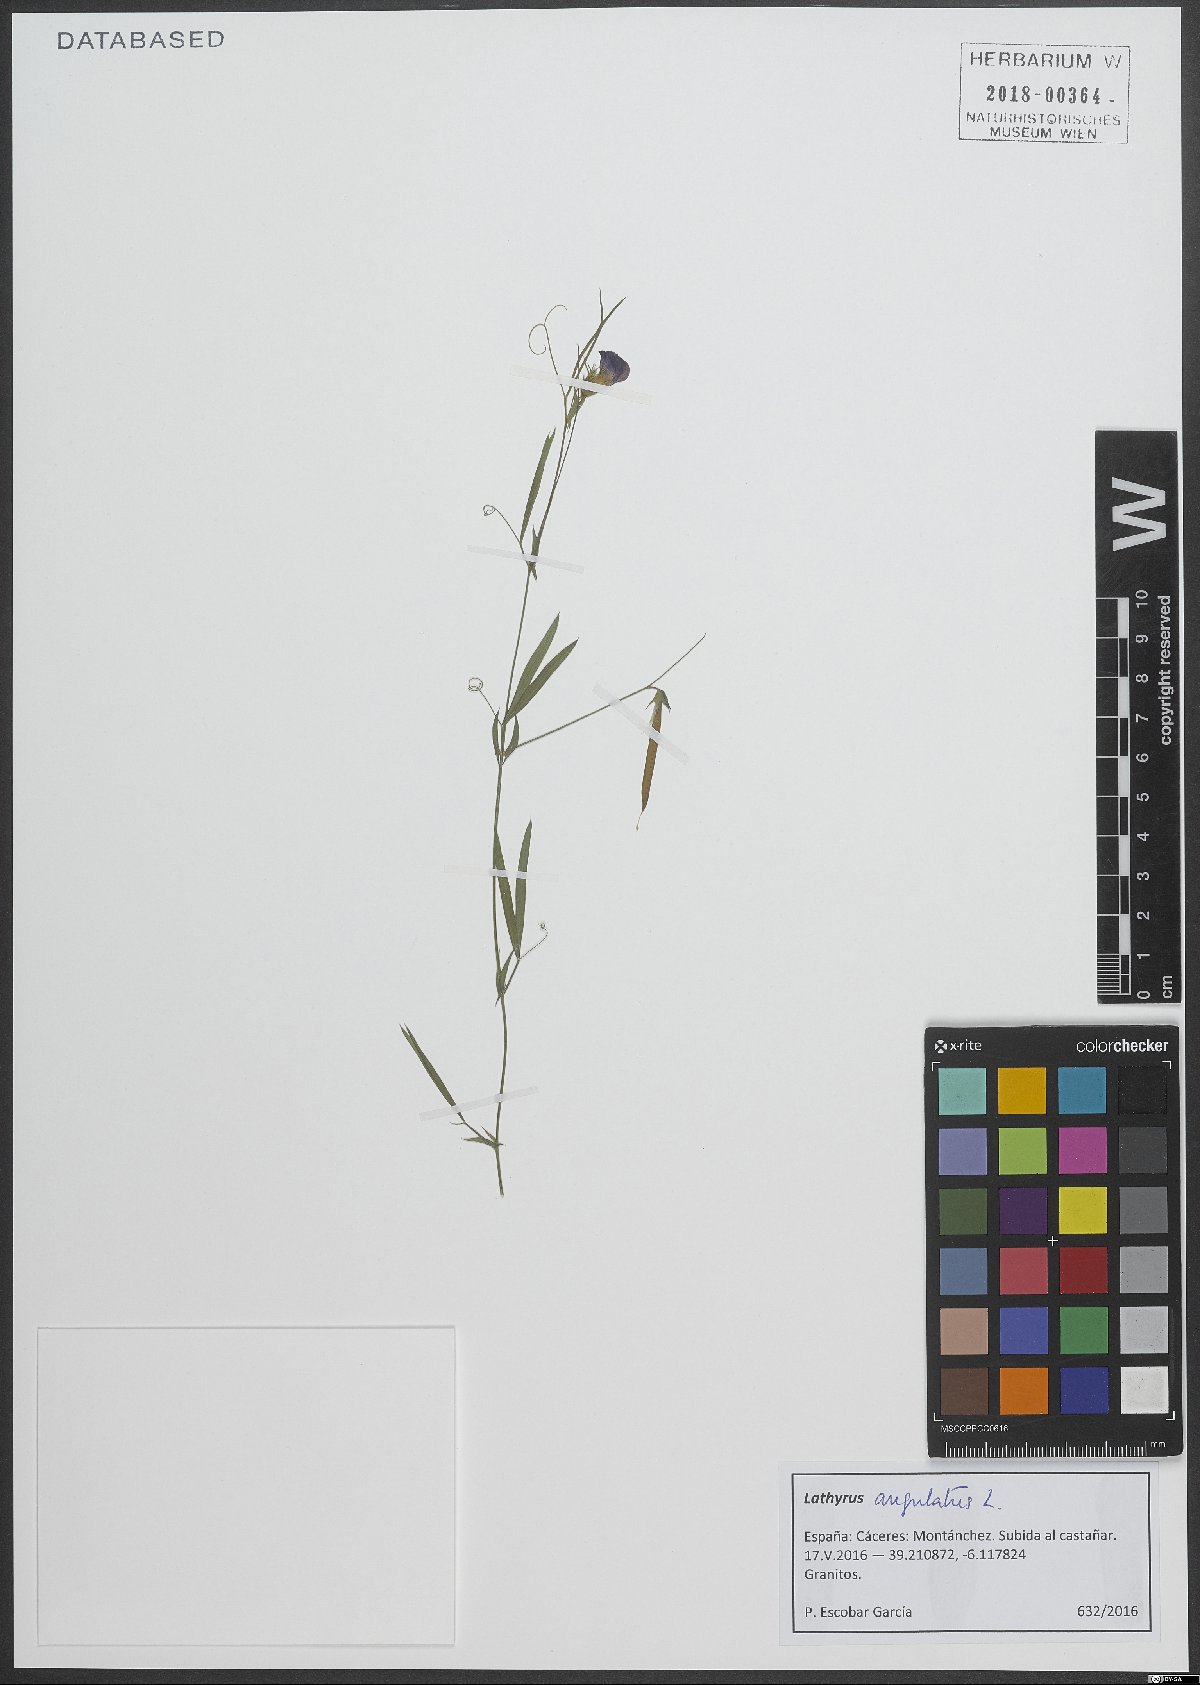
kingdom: Plantae
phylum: Tracheophyta
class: Magnoliopsida
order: Fabales
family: Fabaceae
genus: Lathyrus
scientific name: Lathyrus angulatus
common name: Angular pea
